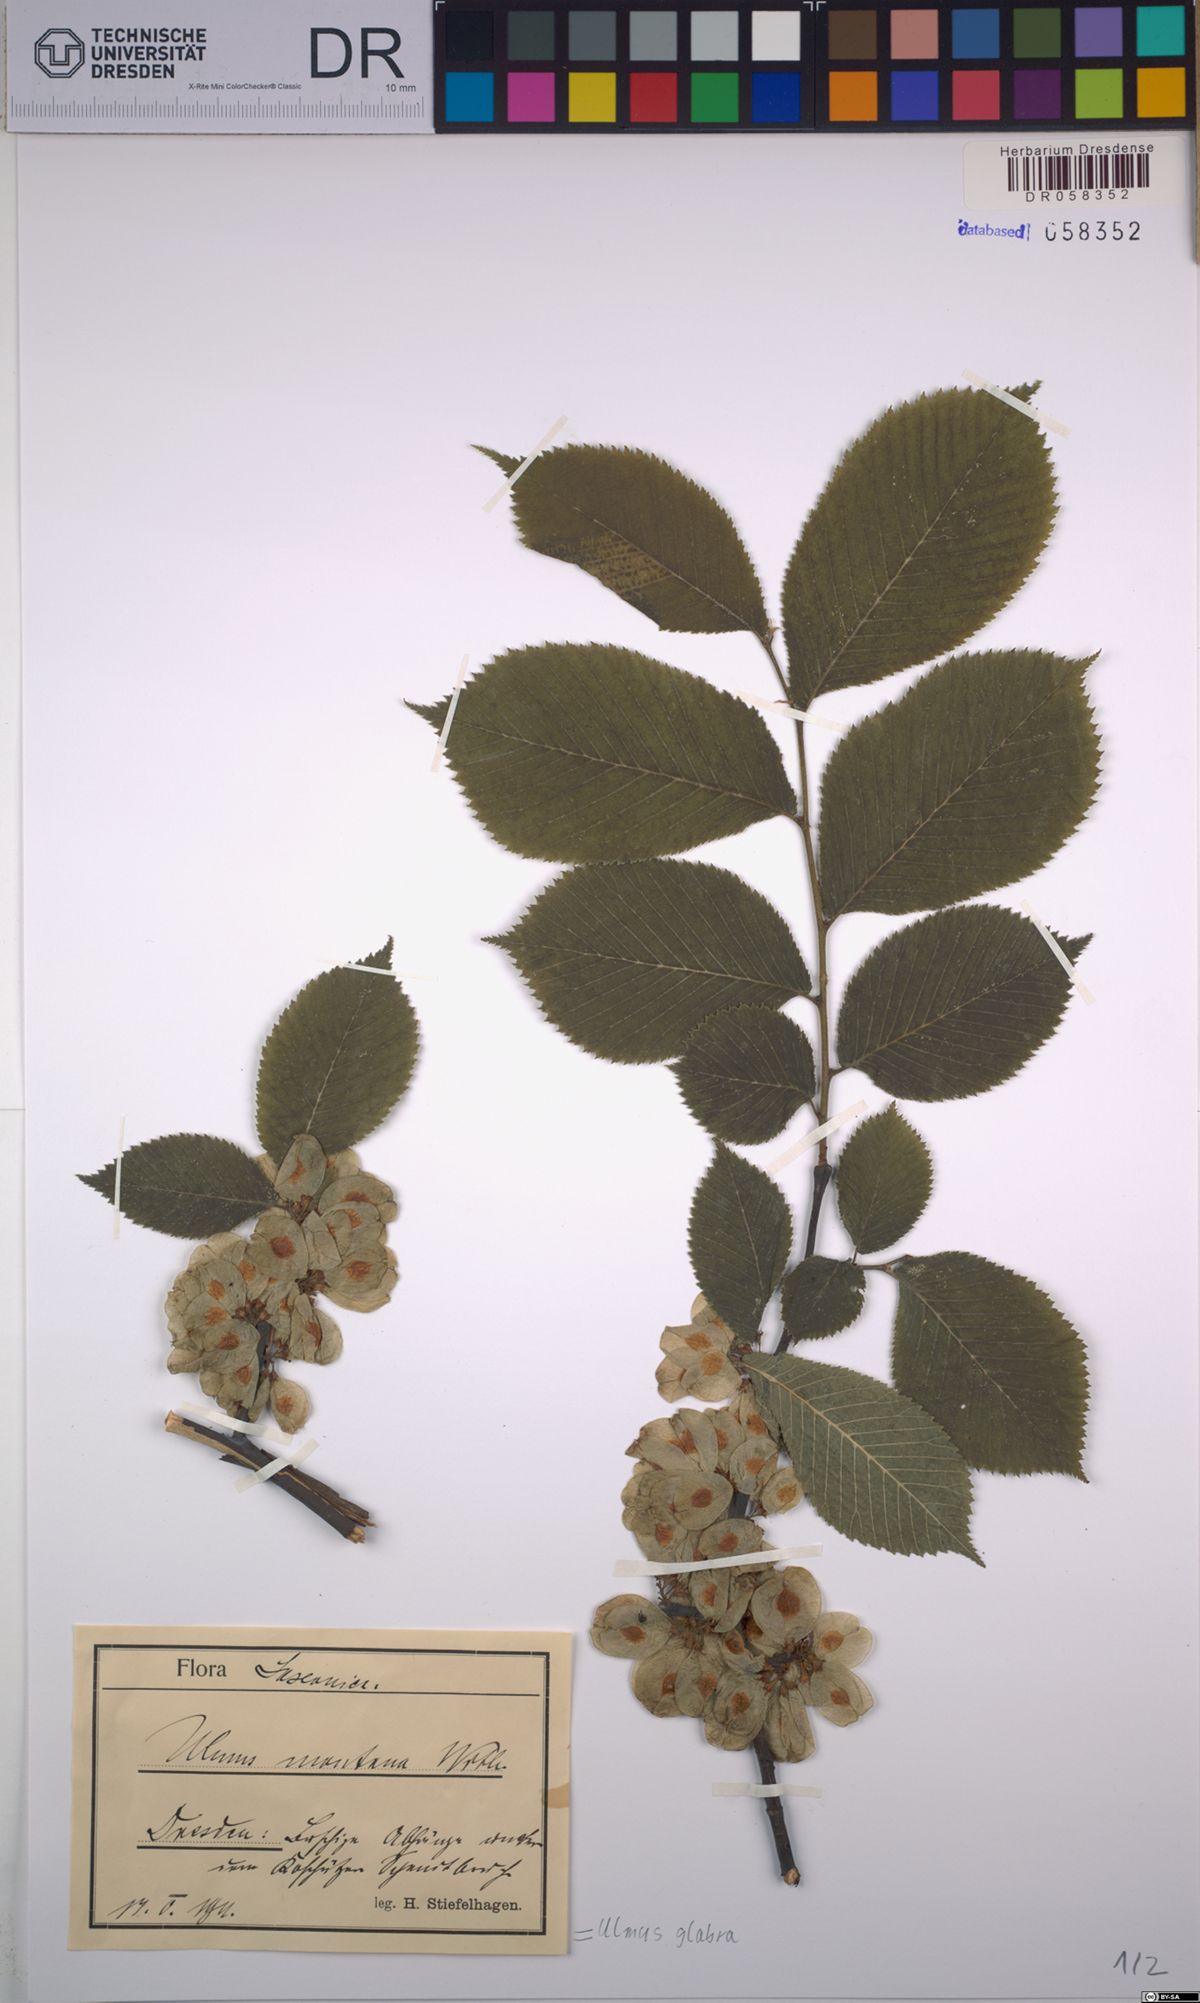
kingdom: Plantae
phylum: Tracheophyta
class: Magnoliopsida
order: Rosales
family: Ulmaceae
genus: Ulmus
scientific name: Ulmus glabra
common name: Wych elm
